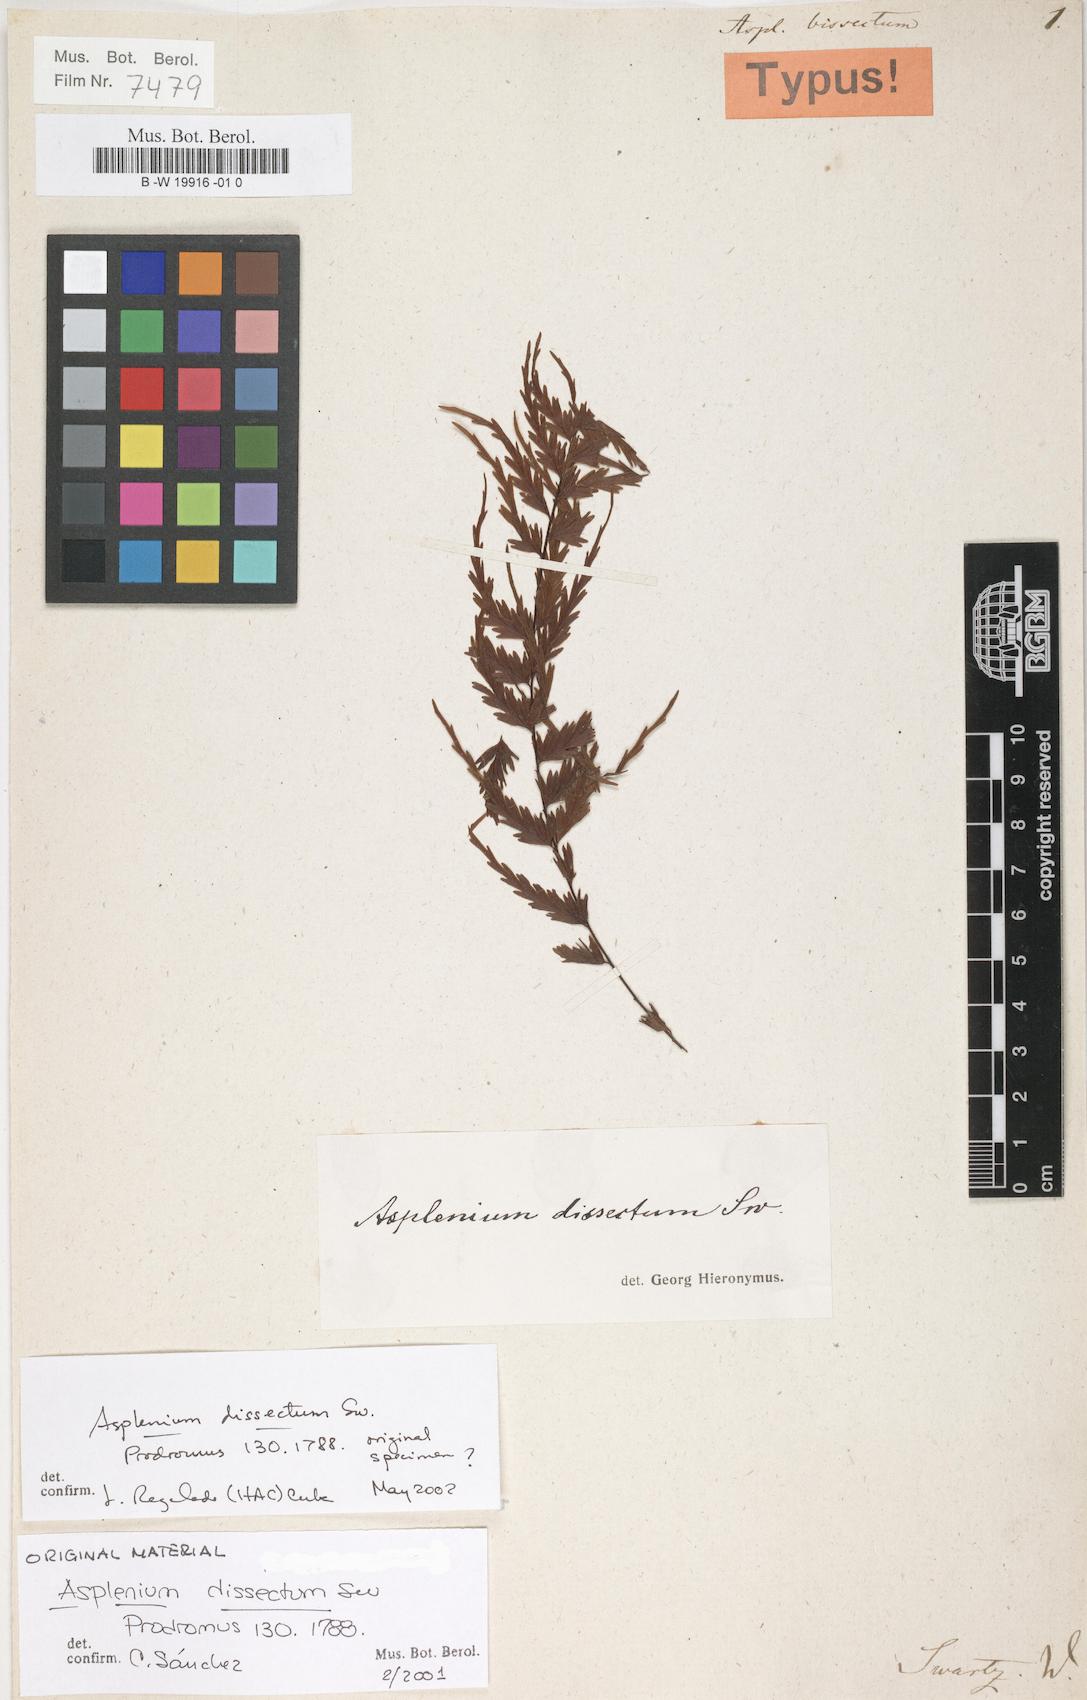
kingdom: Plantae
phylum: Tracheophyta
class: Polypodiopsida
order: Polypodiales
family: Aspleniaceae
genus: Asplenium
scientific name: Asplenium dissectum
